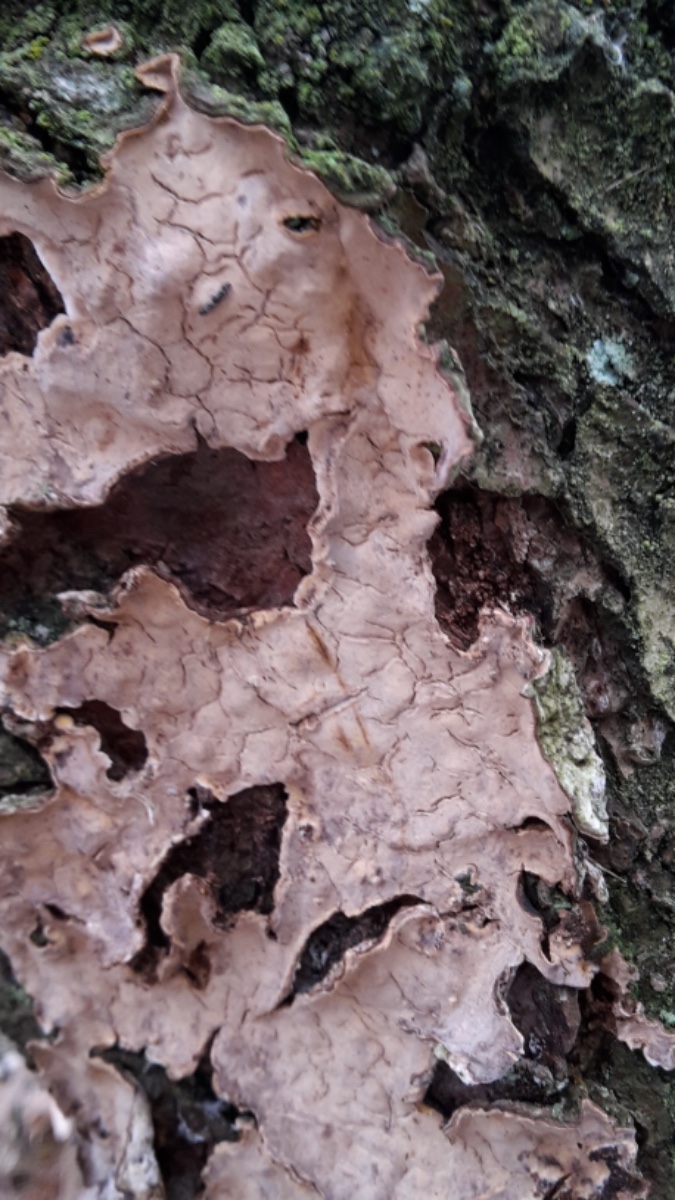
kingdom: Fungi
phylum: Basidiomycota
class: Agaricomycetes
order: Russulales
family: Stereaceae
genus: Stereum
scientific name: Stereum rugosum
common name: rynket lædersvamp
